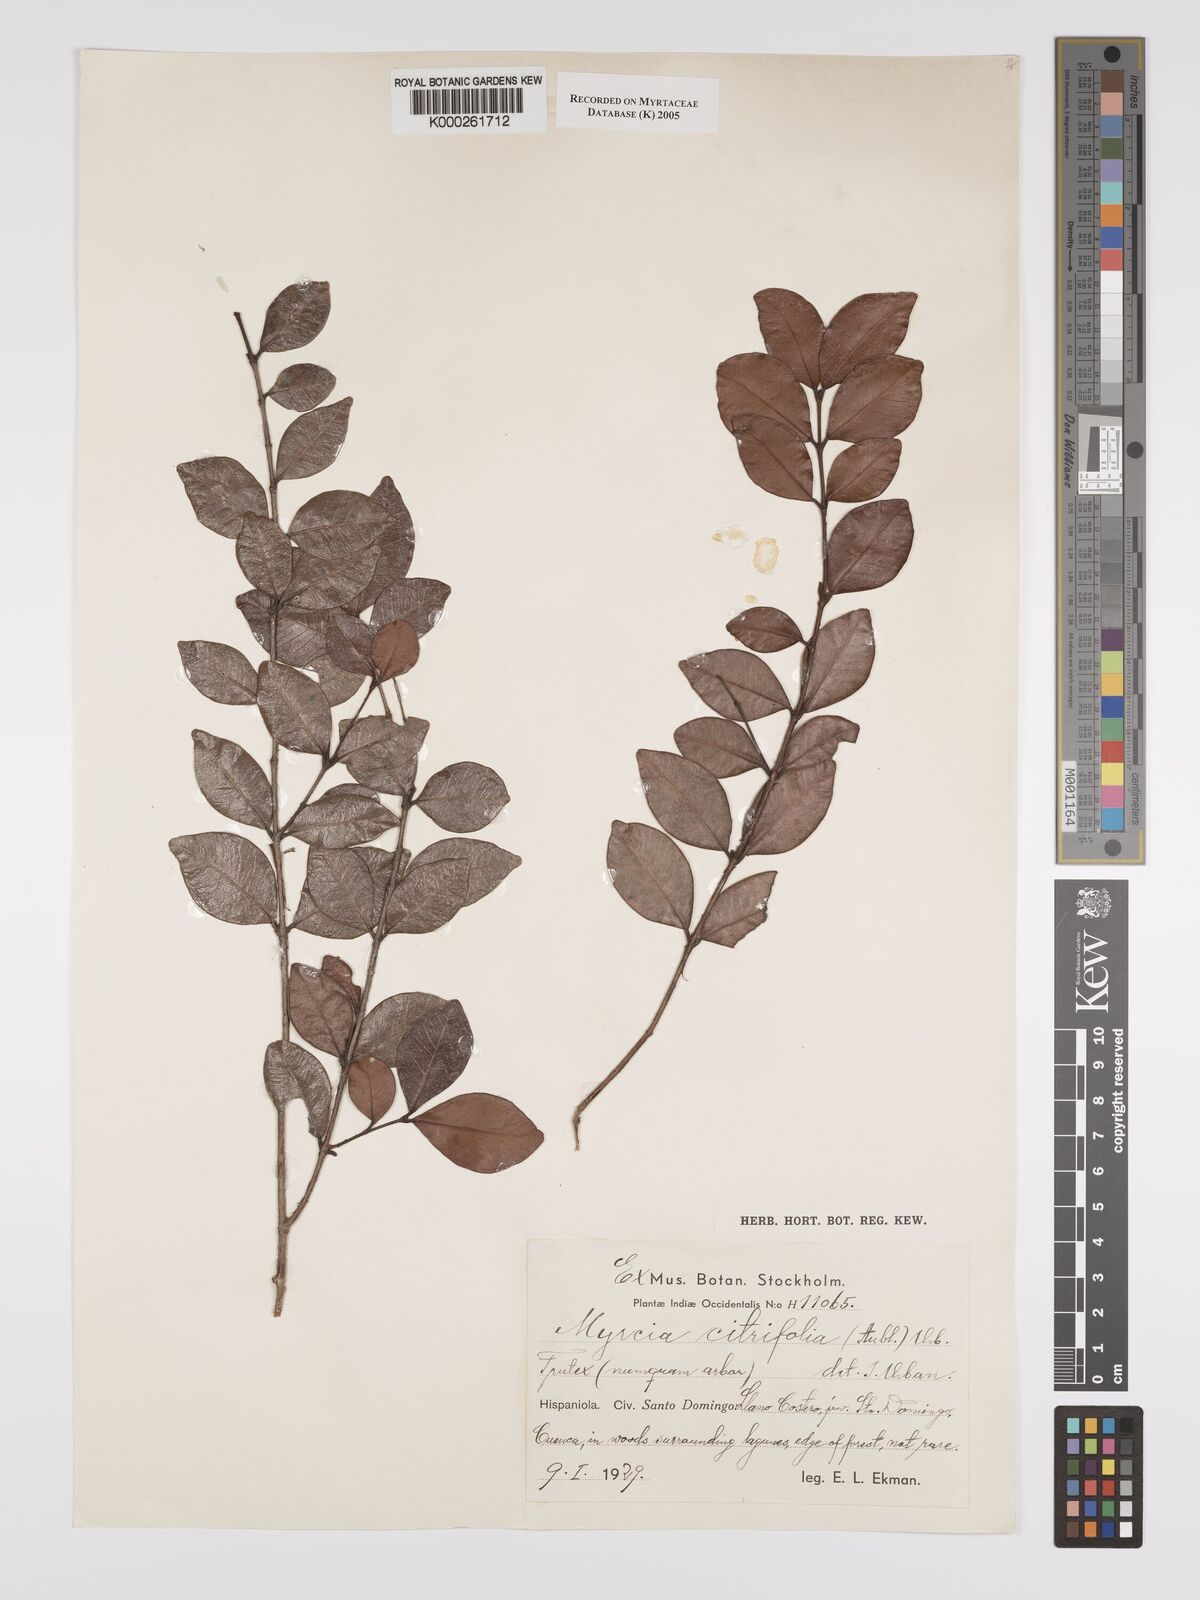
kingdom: Plantae
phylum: Tracheophyta
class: Magnoliopsida
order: Myrtales
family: Myrtaceae
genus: Myrcia
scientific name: Myrcia guianensis
